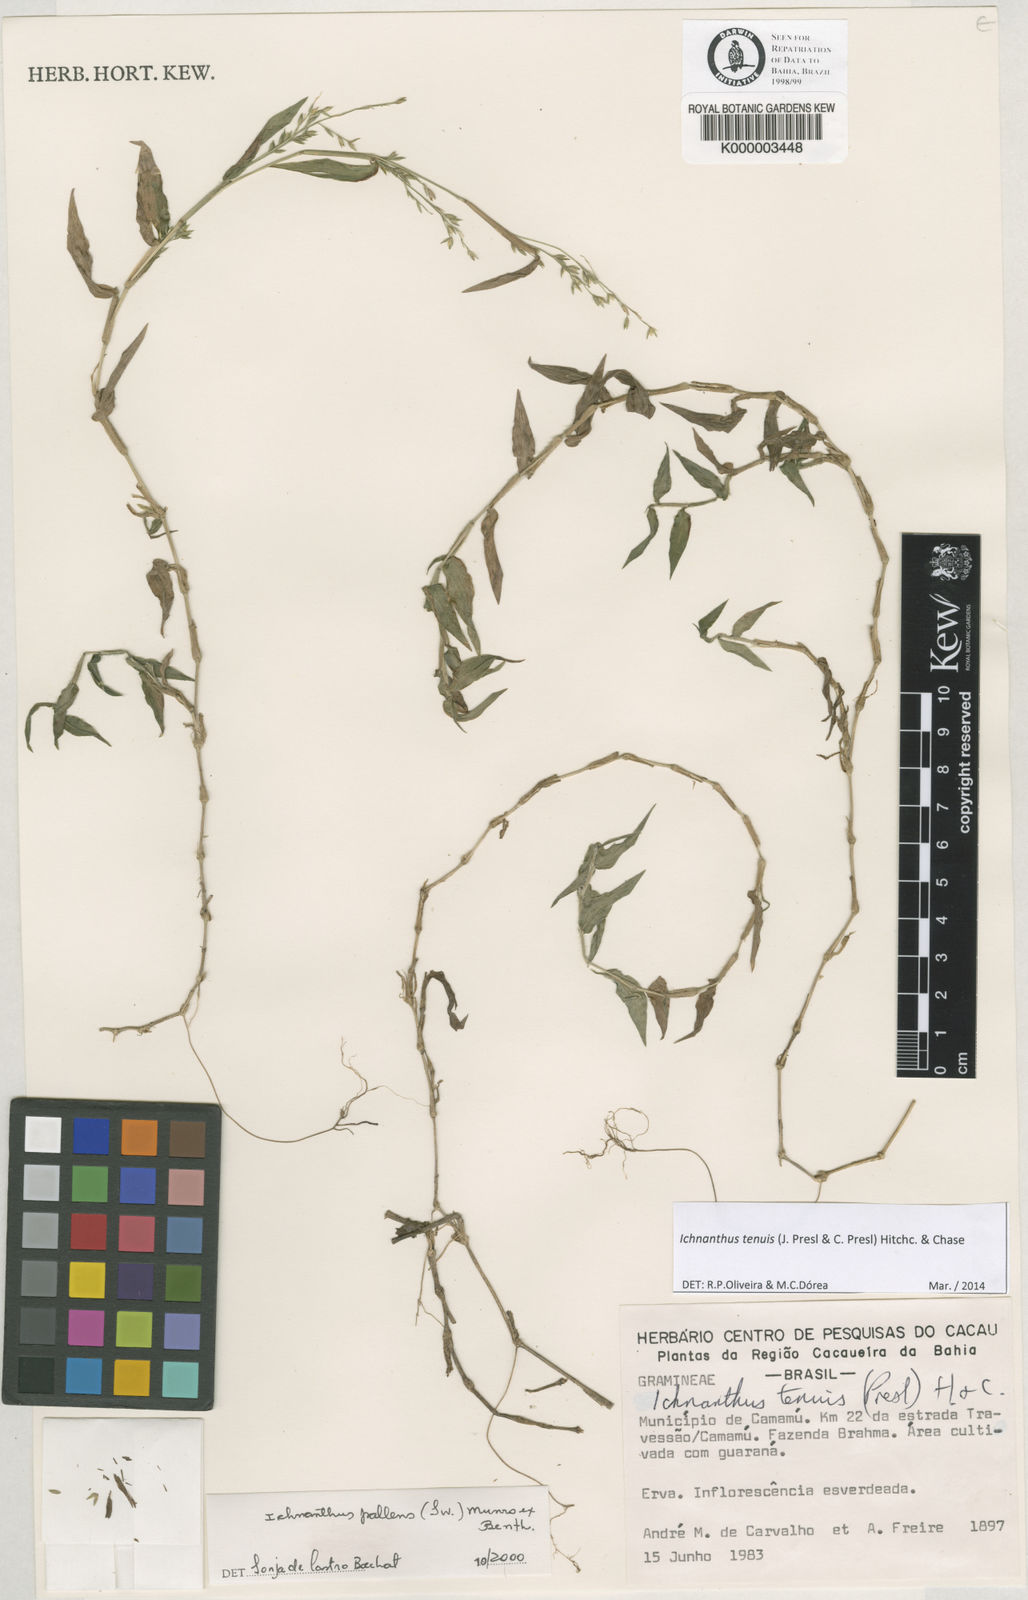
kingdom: Plantae
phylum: Tracheophyta
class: Liliopsida
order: Poales
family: Poaceae
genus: Ichnanthus
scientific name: Ichnanthus tenuis
